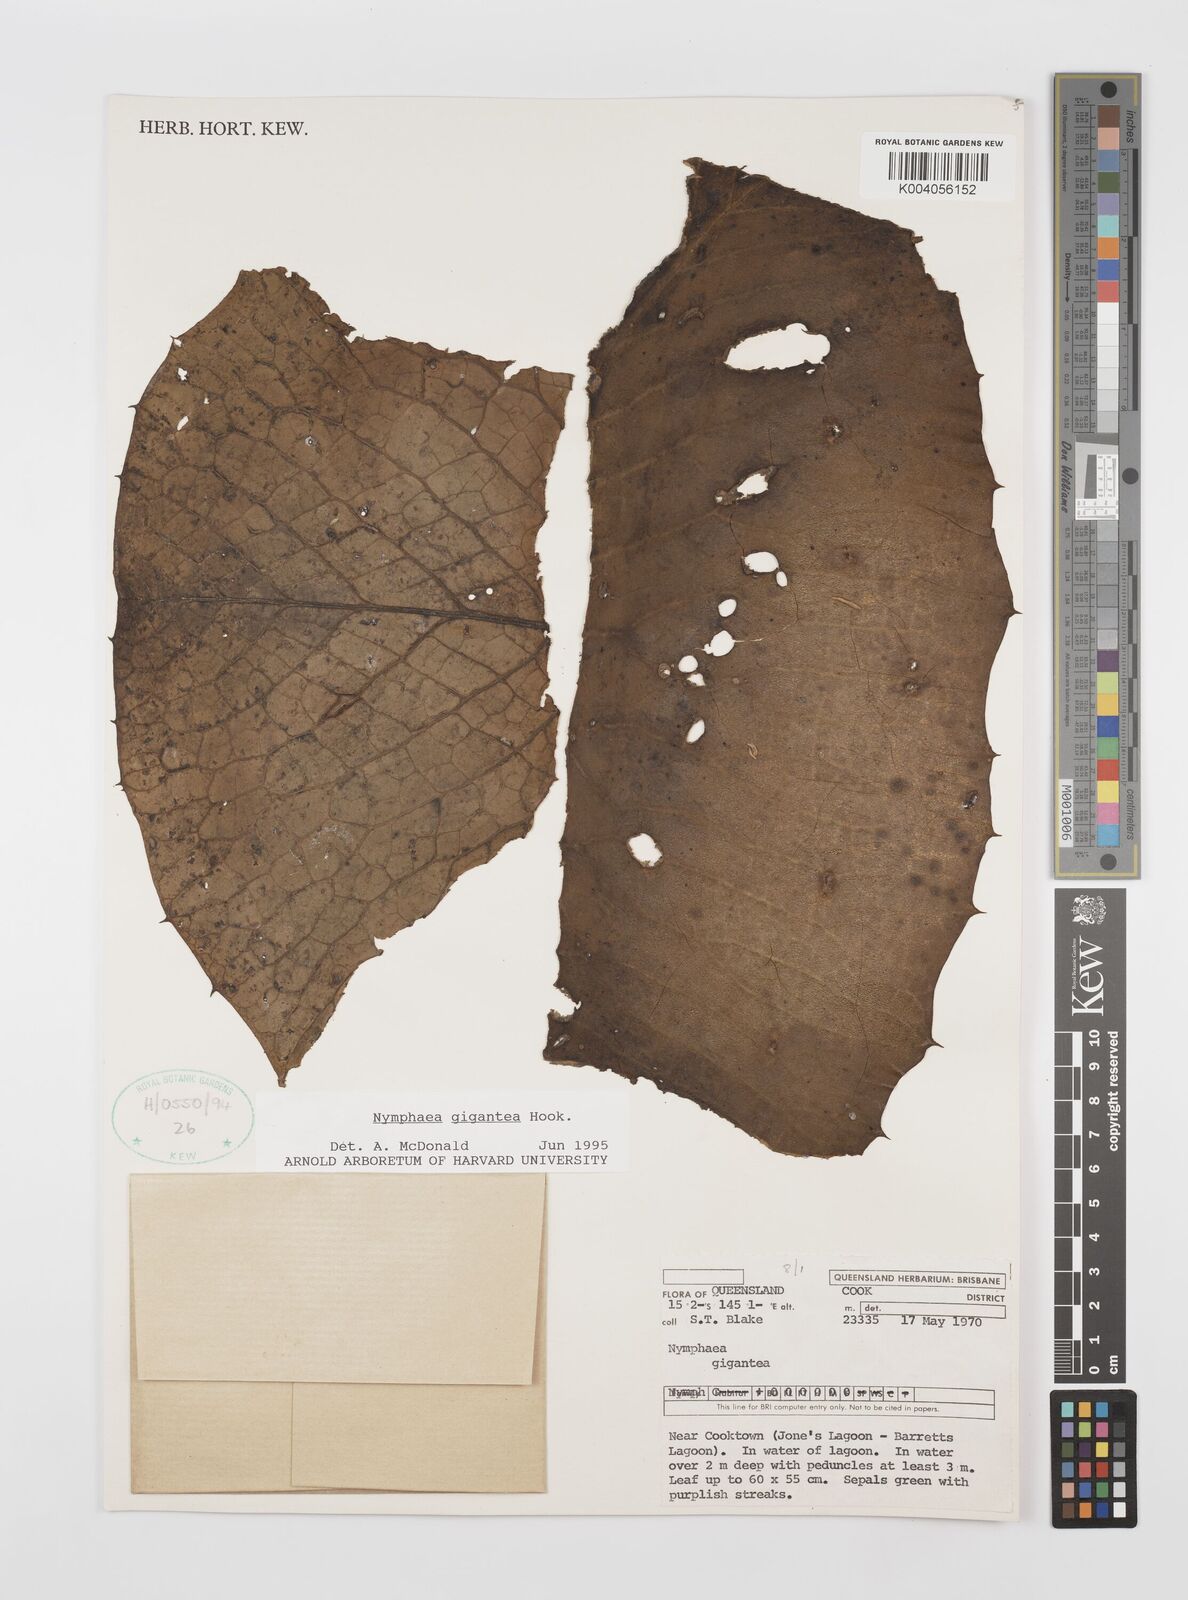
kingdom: Plantae
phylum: Tracheophyta
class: Magnoliopsida
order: Nymphaeales
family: Nymphaeaceae
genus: Nymphaea
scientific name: Nymphaea gigantea
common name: Giant water-lily
